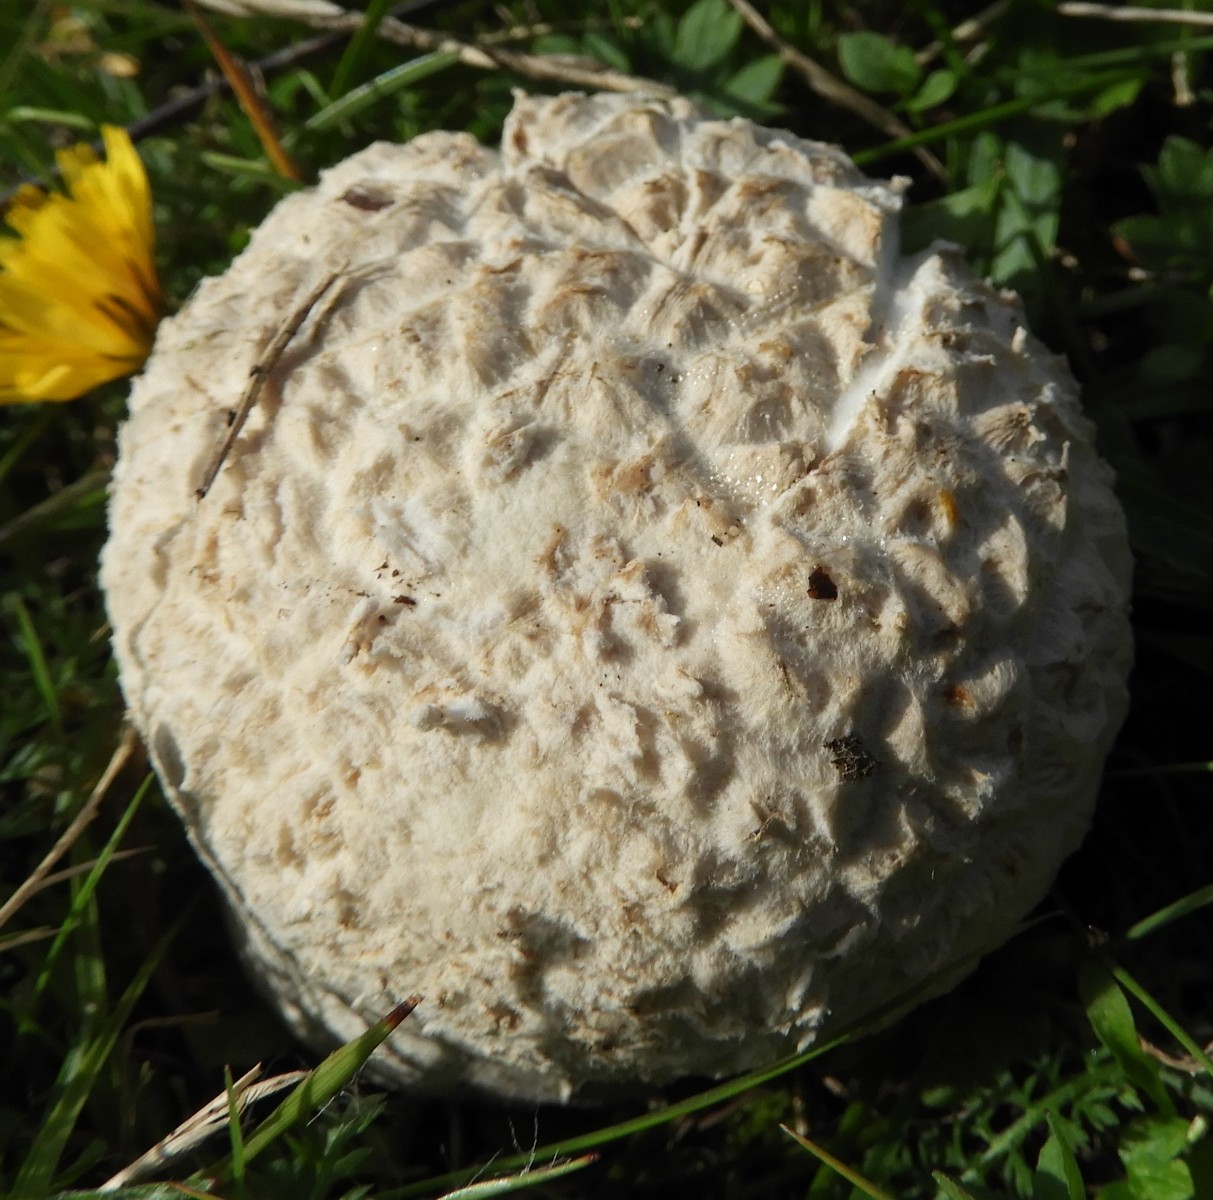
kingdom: Fungi
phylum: Basidiomycota
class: Agaricomycetes
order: Agaricales
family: Agaricaceae
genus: Lycoperdon
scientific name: Lycoperdon
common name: støvbold
